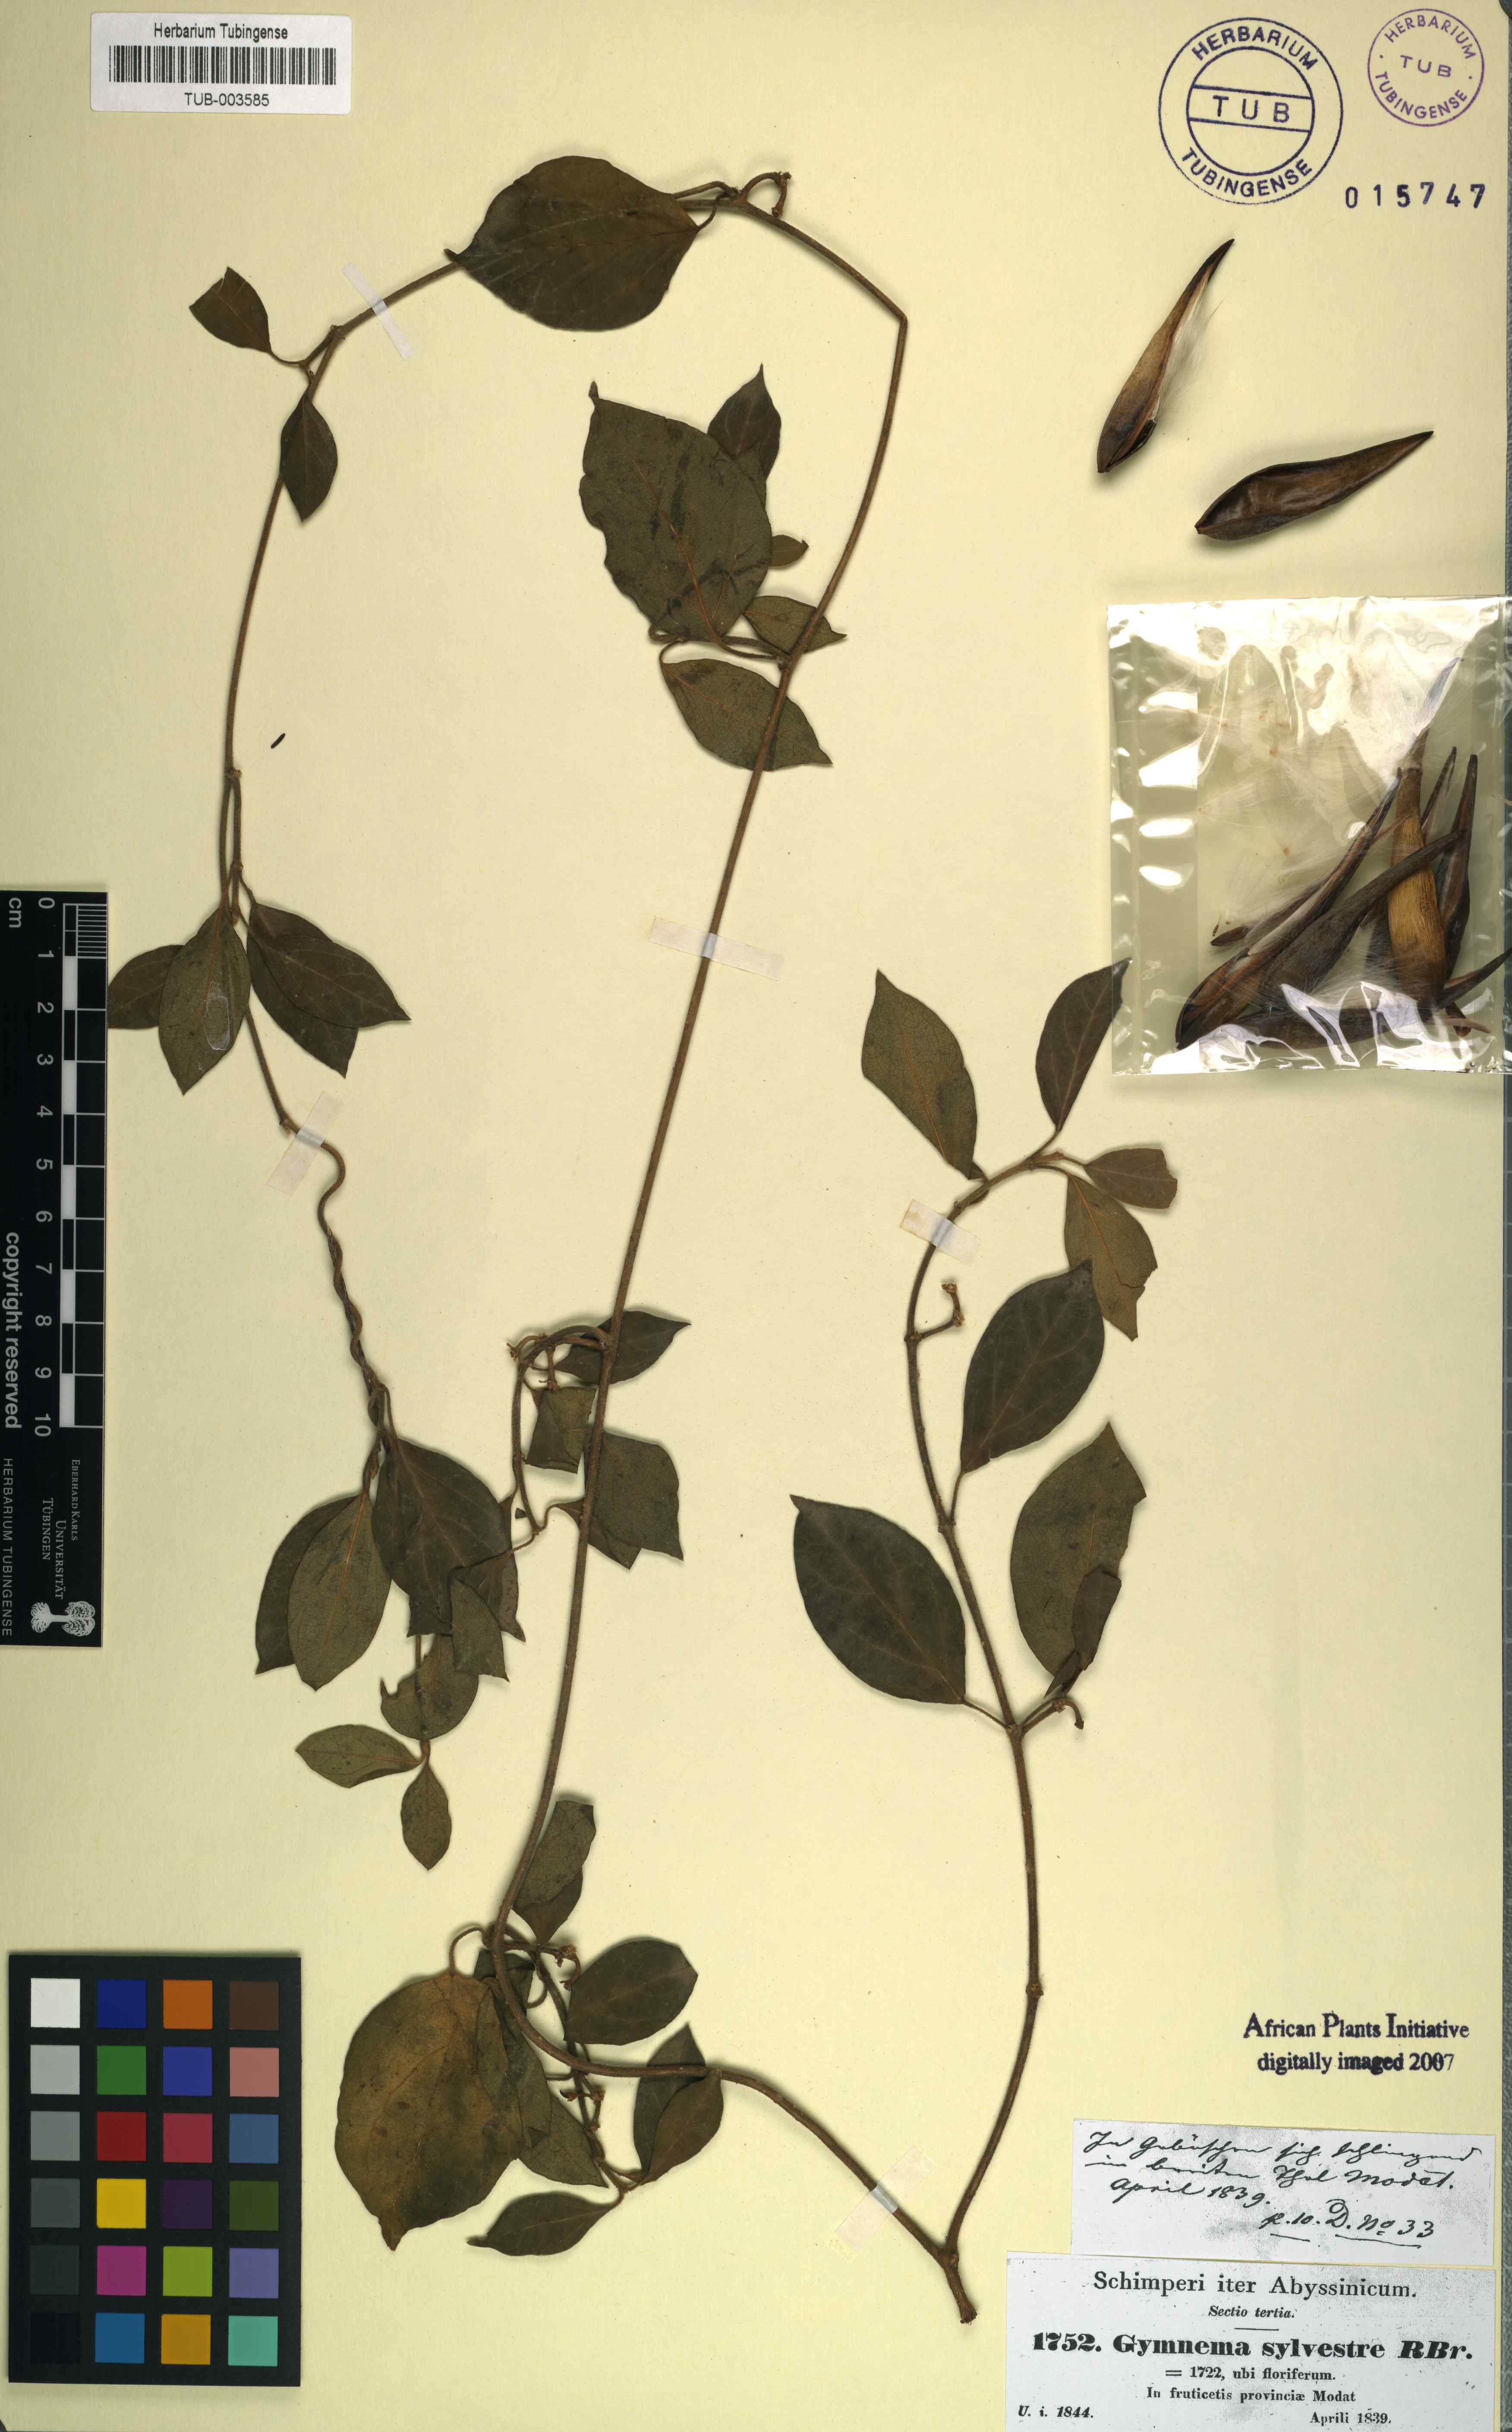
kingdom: Plantae
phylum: Tracheophyta
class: Magnoliopsida
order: Gentianales
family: Apocynaceae
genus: Gymnema
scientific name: Gymnema sylvestre
